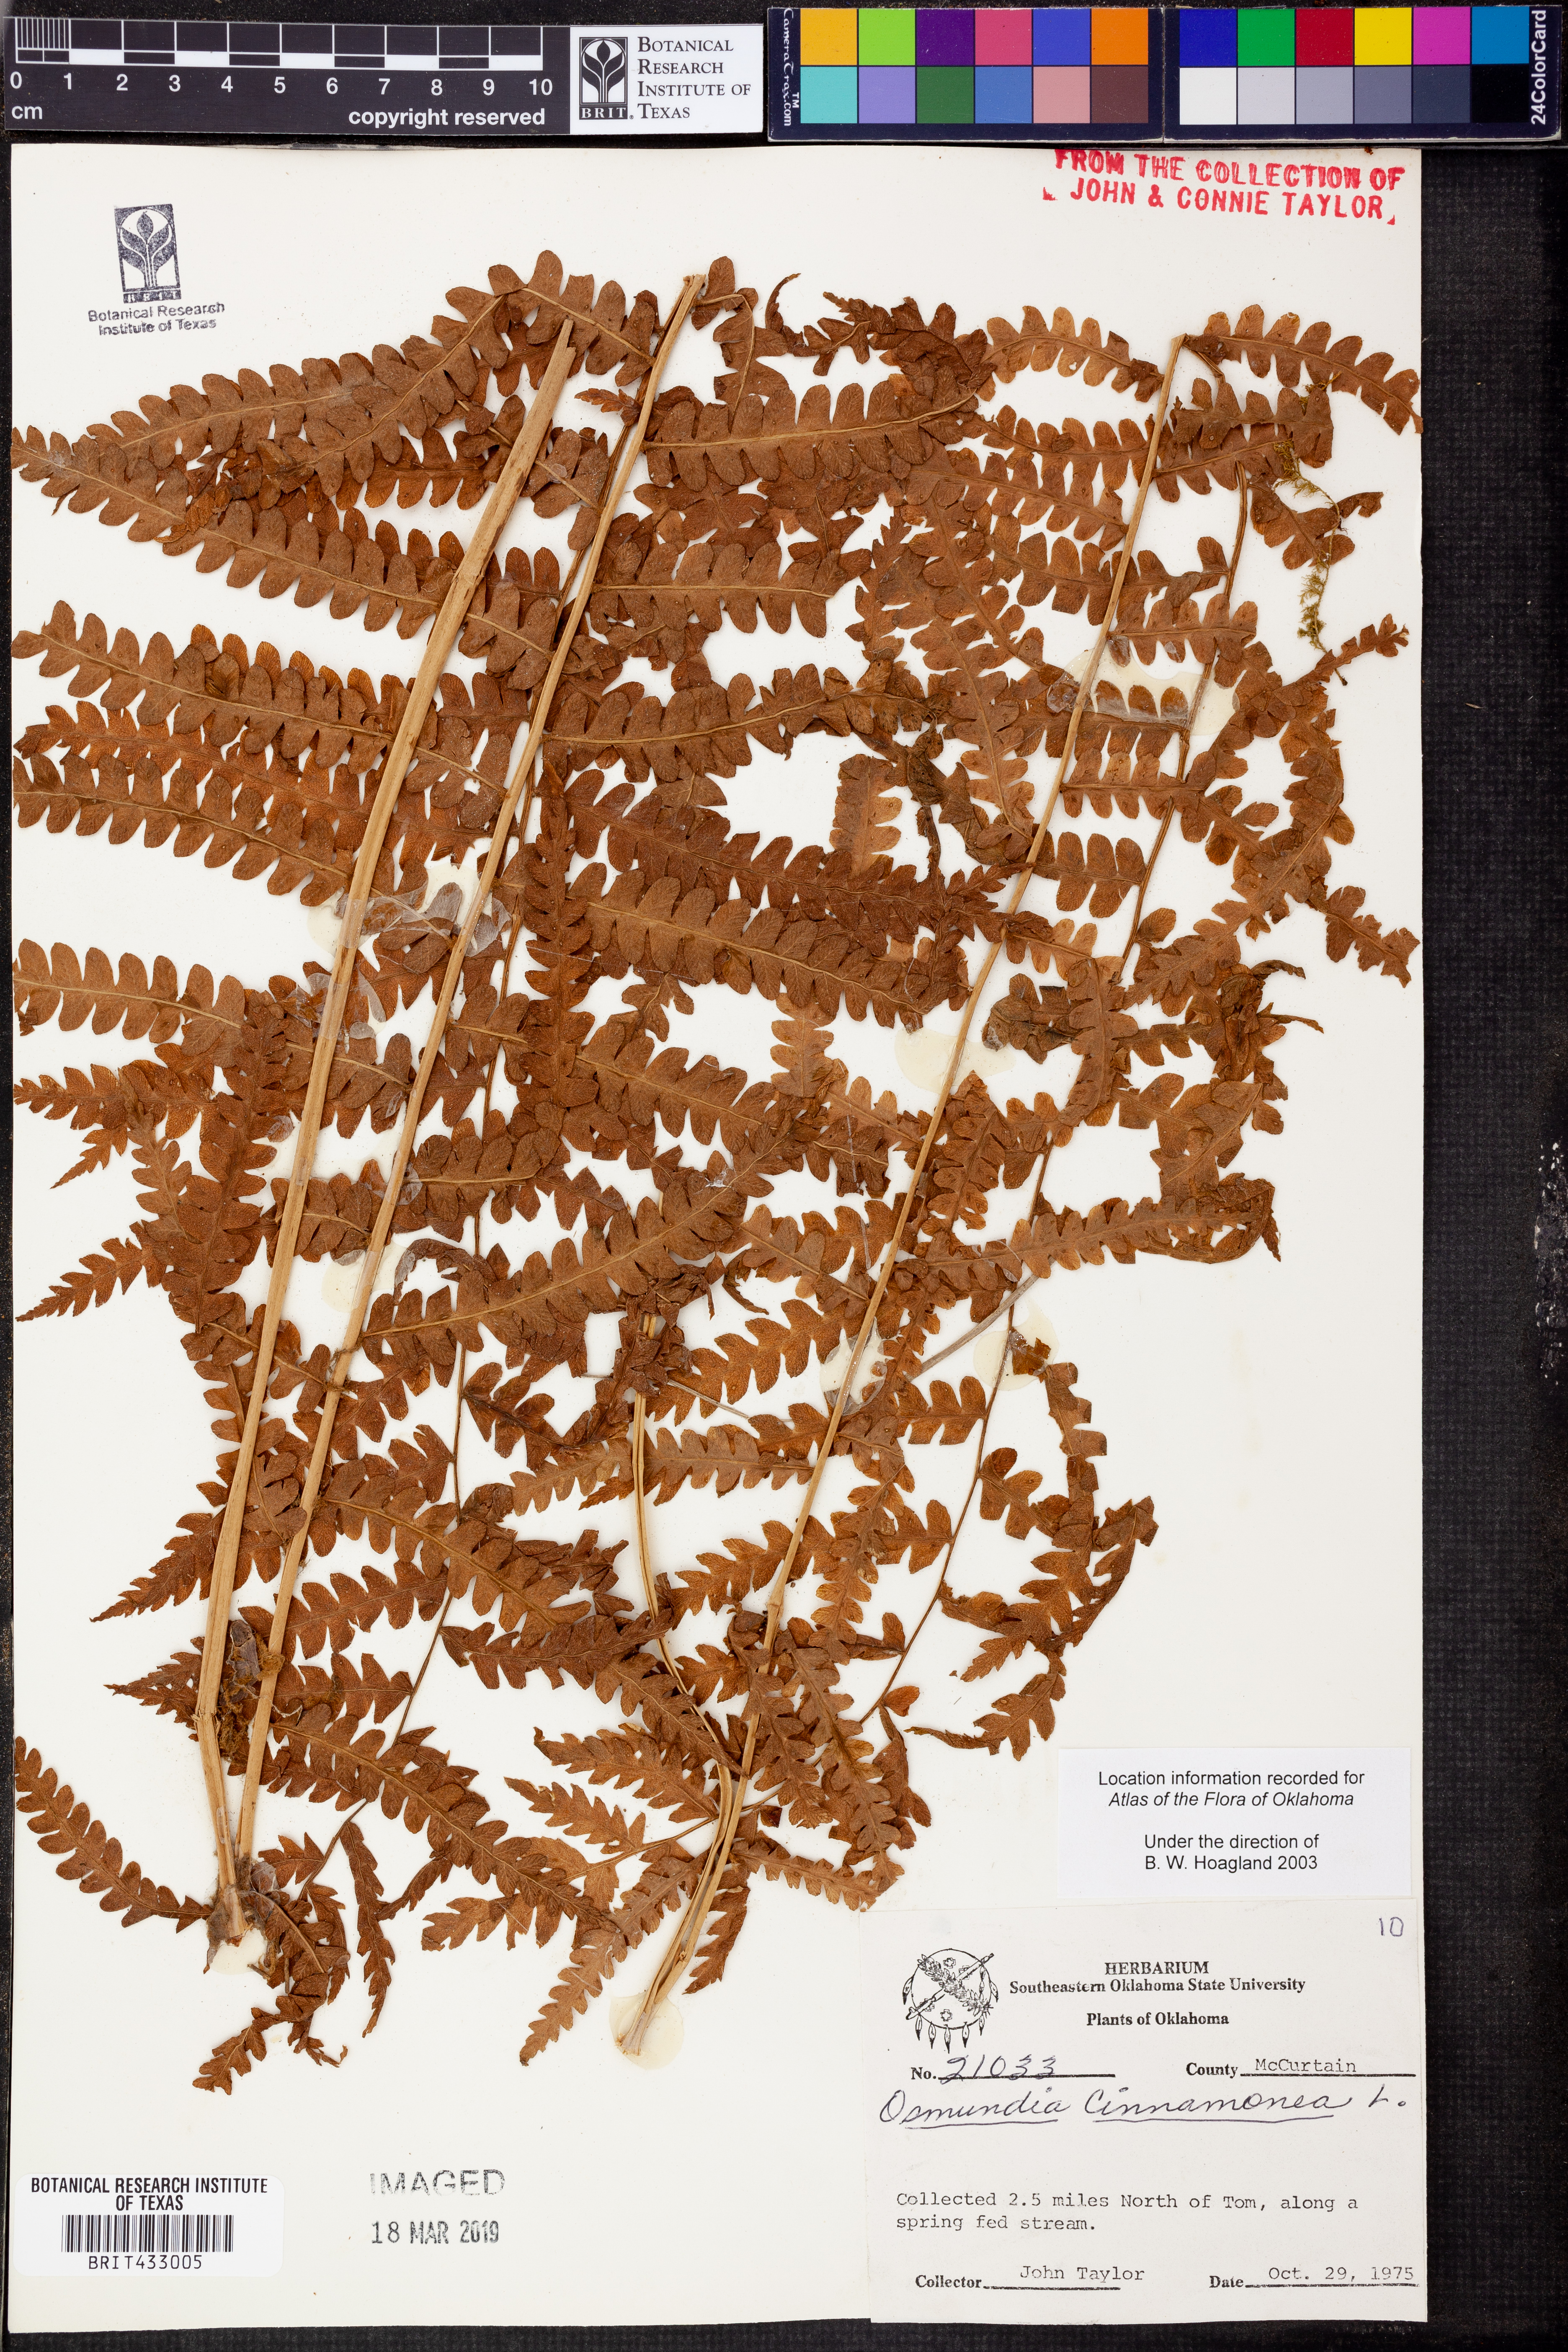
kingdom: Plantae
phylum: Tracheophyta
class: Polypodiopsida
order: Osmundales
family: Osmundaceae
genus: Osmundastrum
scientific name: Osmundastrum cinnamomeum
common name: Cinnamon fern
